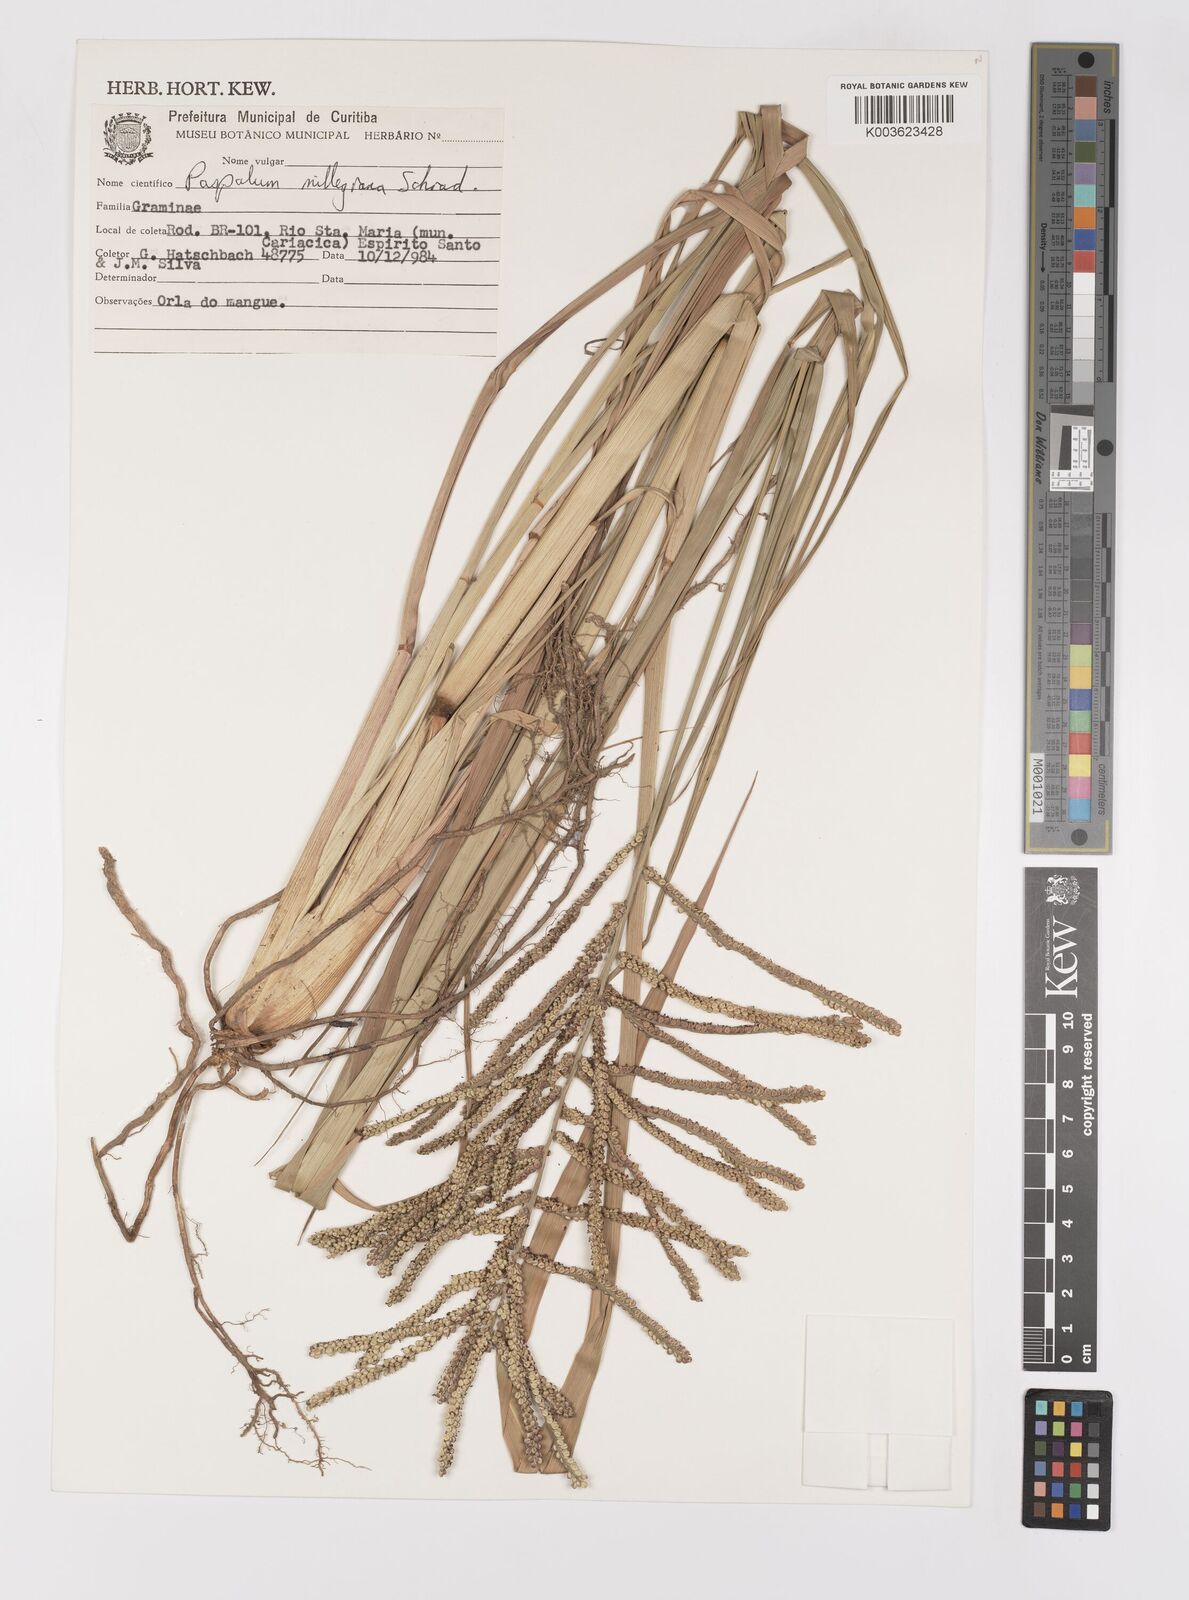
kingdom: Plantae
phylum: Tracheophyta
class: Liliopsida
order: Poales
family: Poaceae
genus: Paspalum
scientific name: Paspalum millegranum
